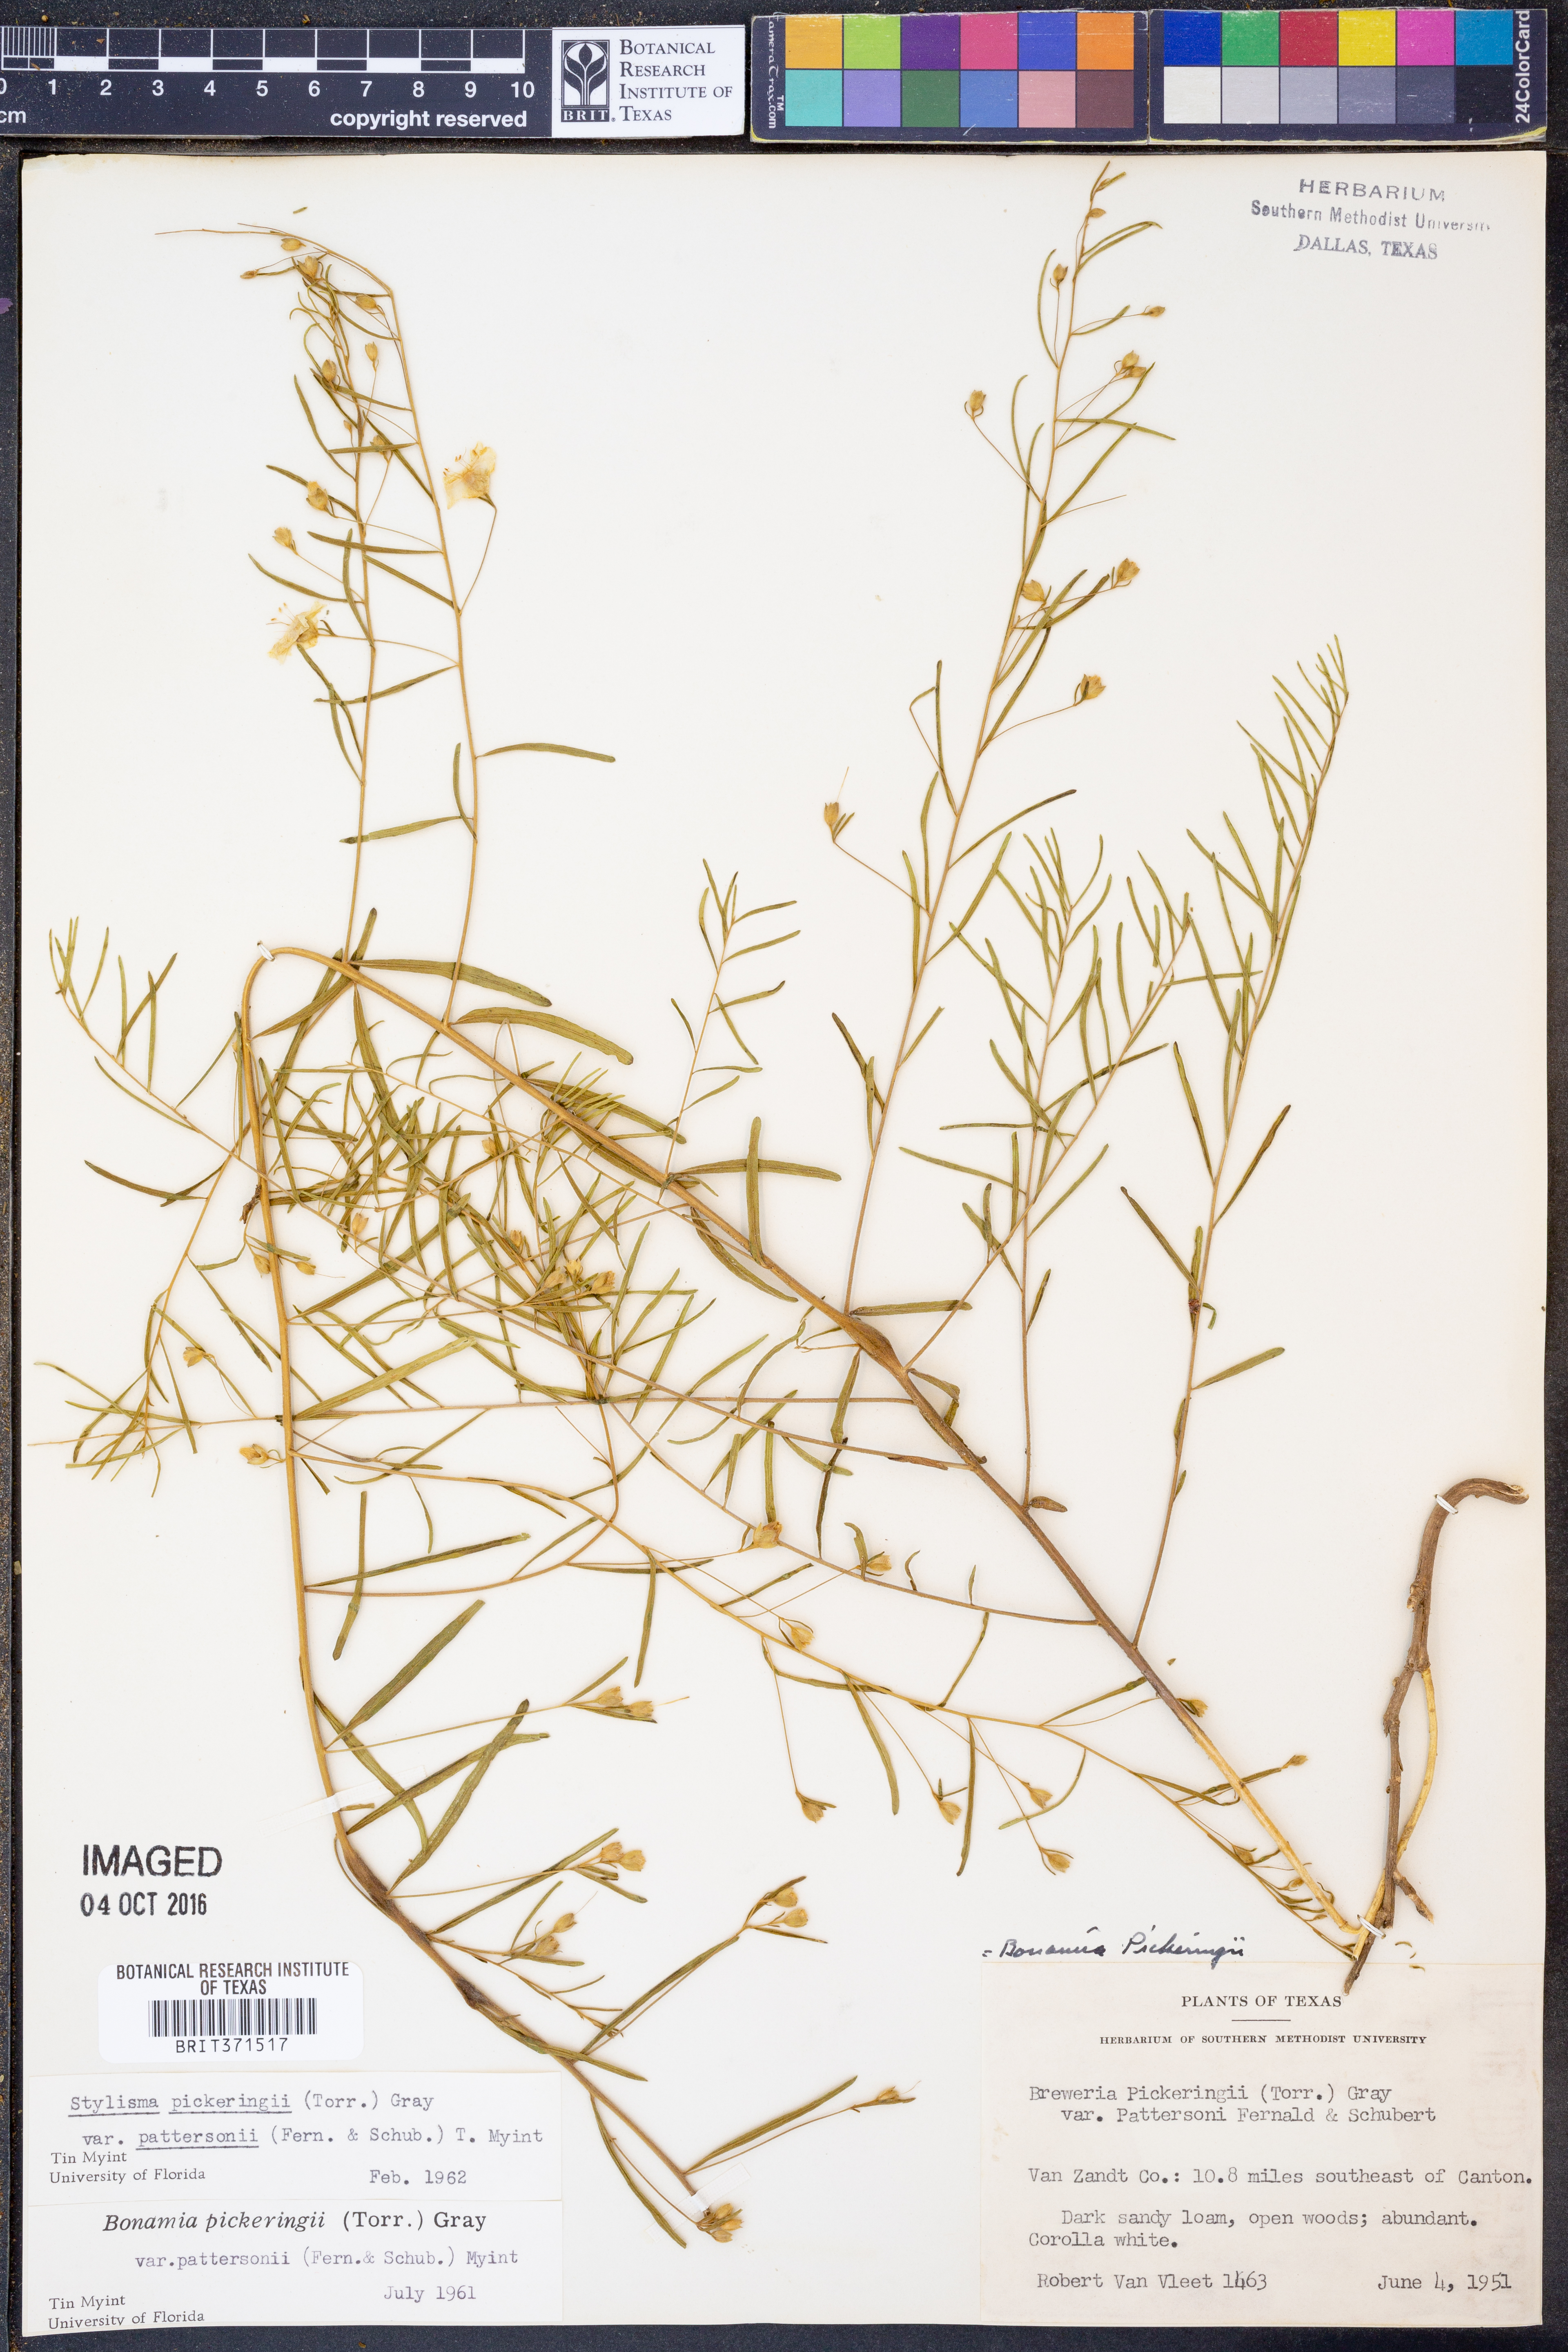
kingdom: Plantae
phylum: Tracheophyta
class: Magnoliopsida
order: Solanales
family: Convolvulaceae
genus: Stylisma
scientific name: Stylisma pickeringii
